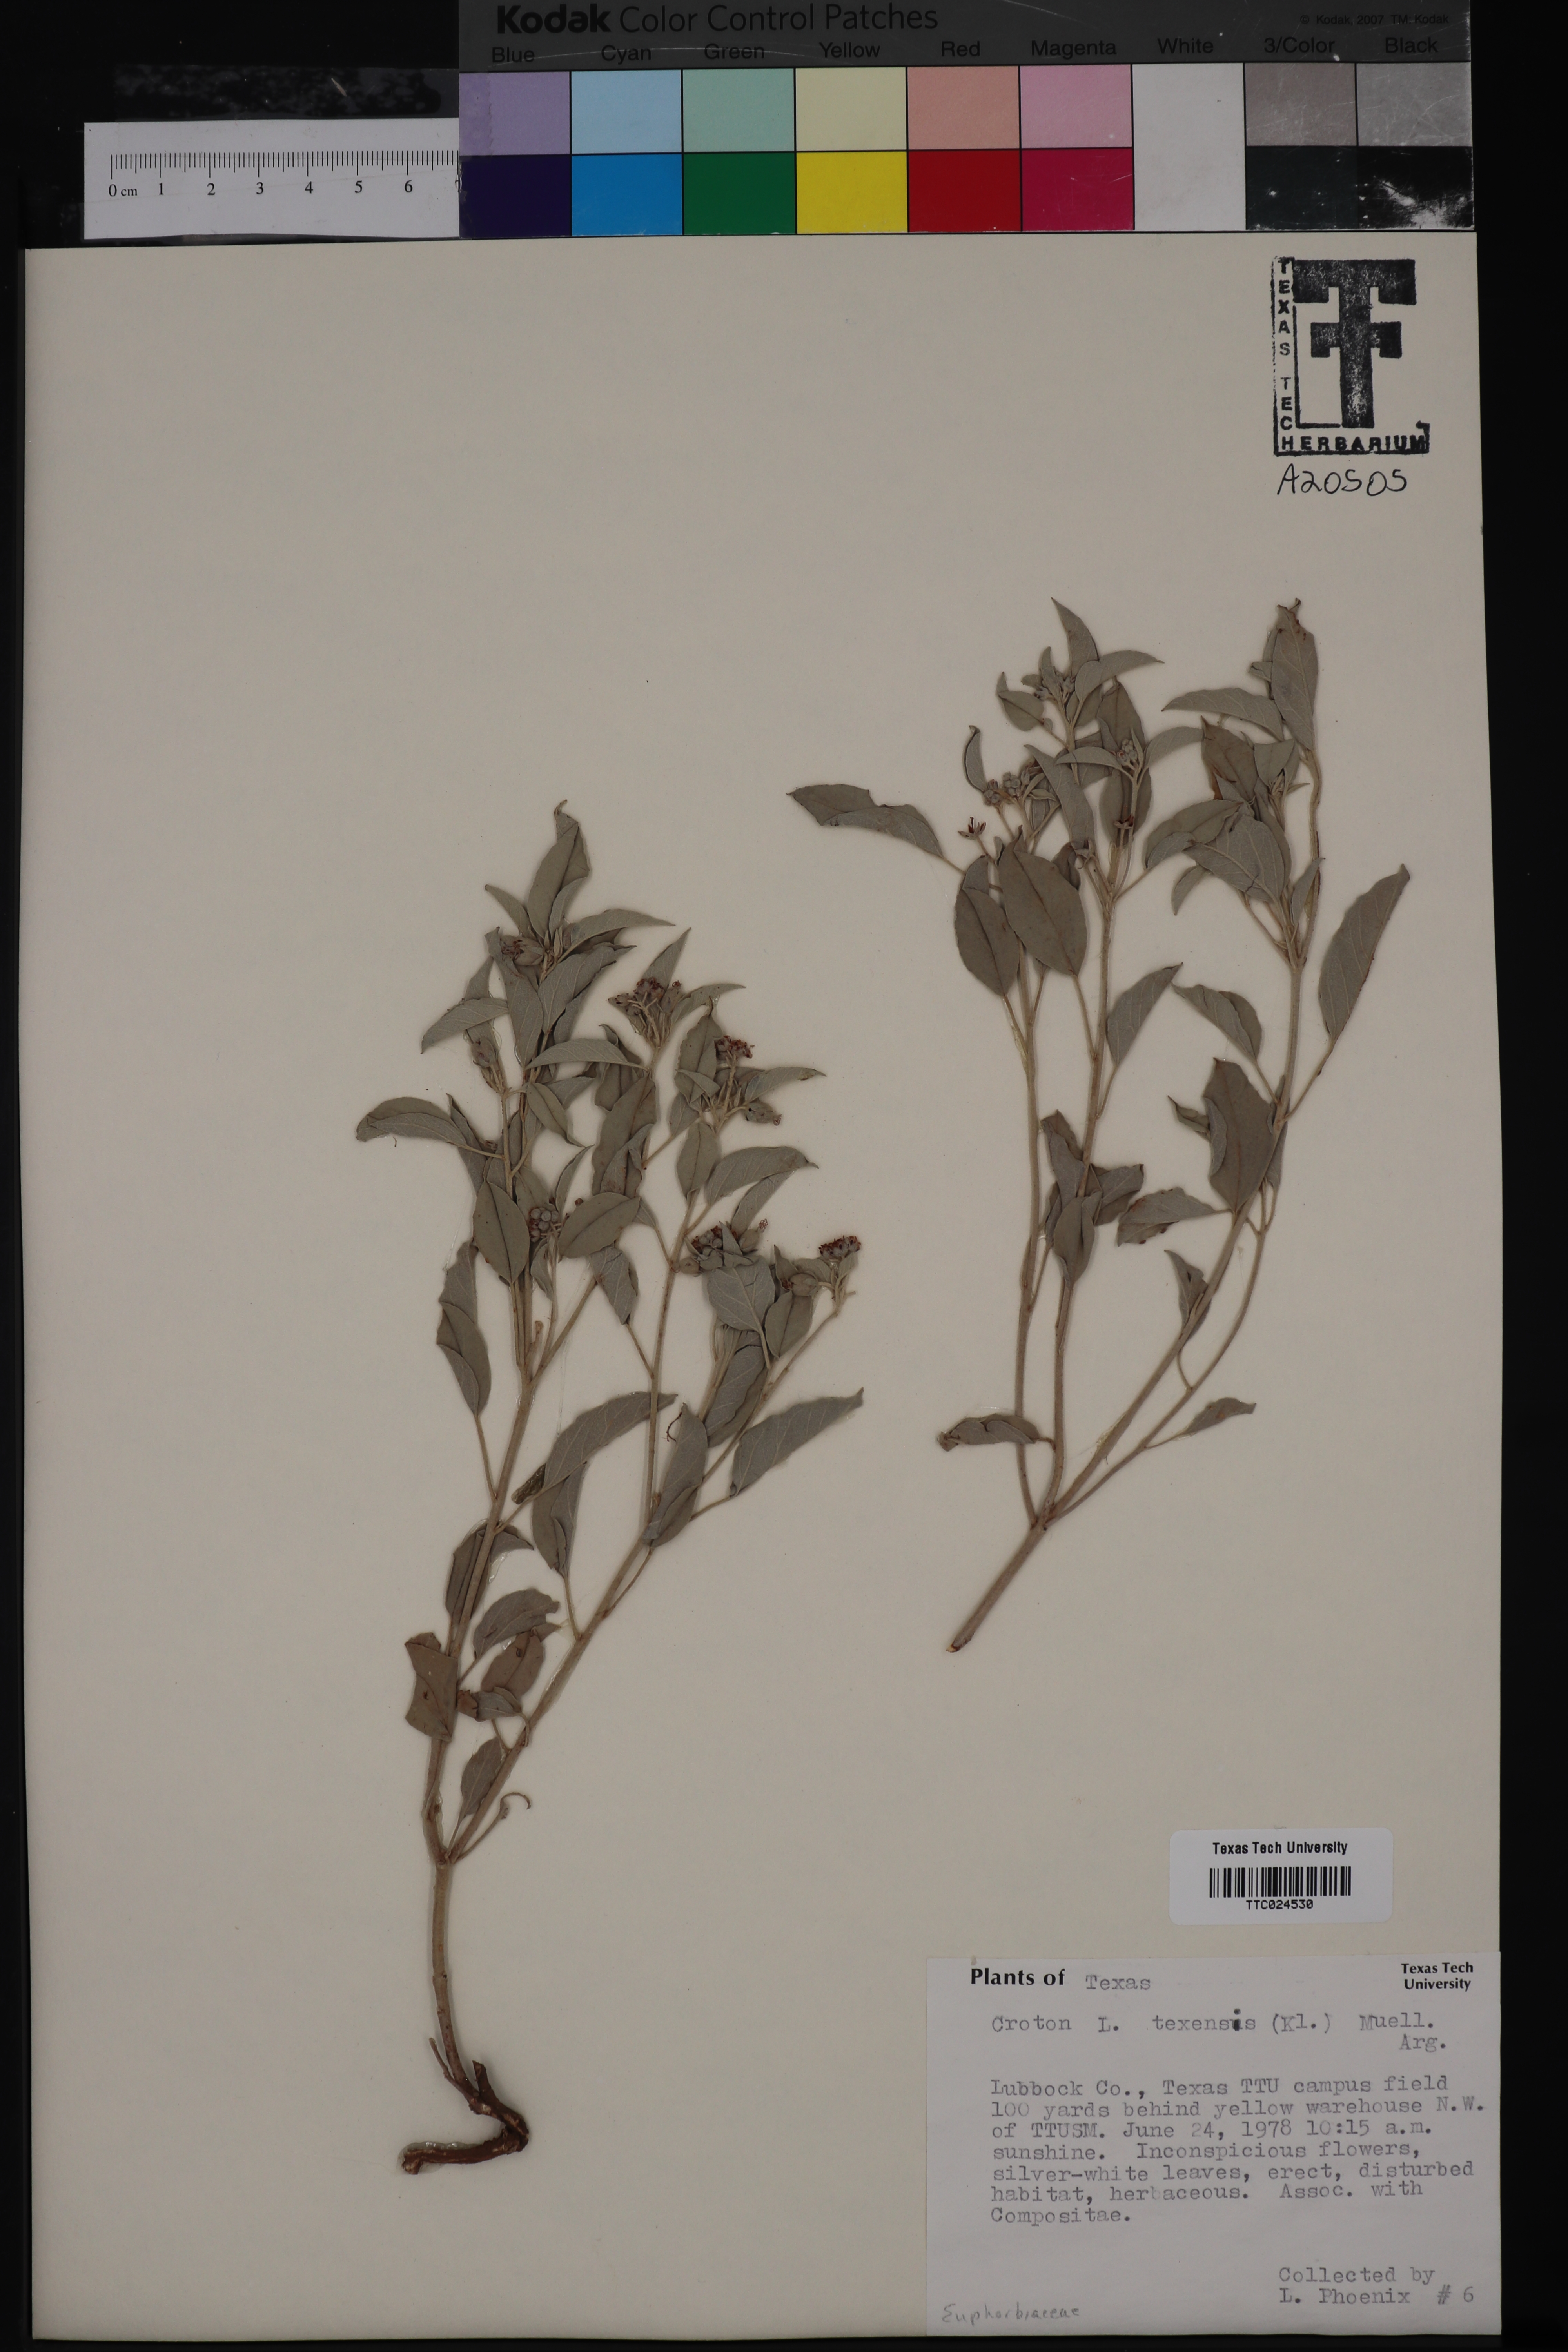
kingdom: Plantae
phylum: Tracheophyta
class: Magnoliopsida
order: Malpighiales
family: Euphorbiaceae
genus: Croton
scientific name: Croton texensis
